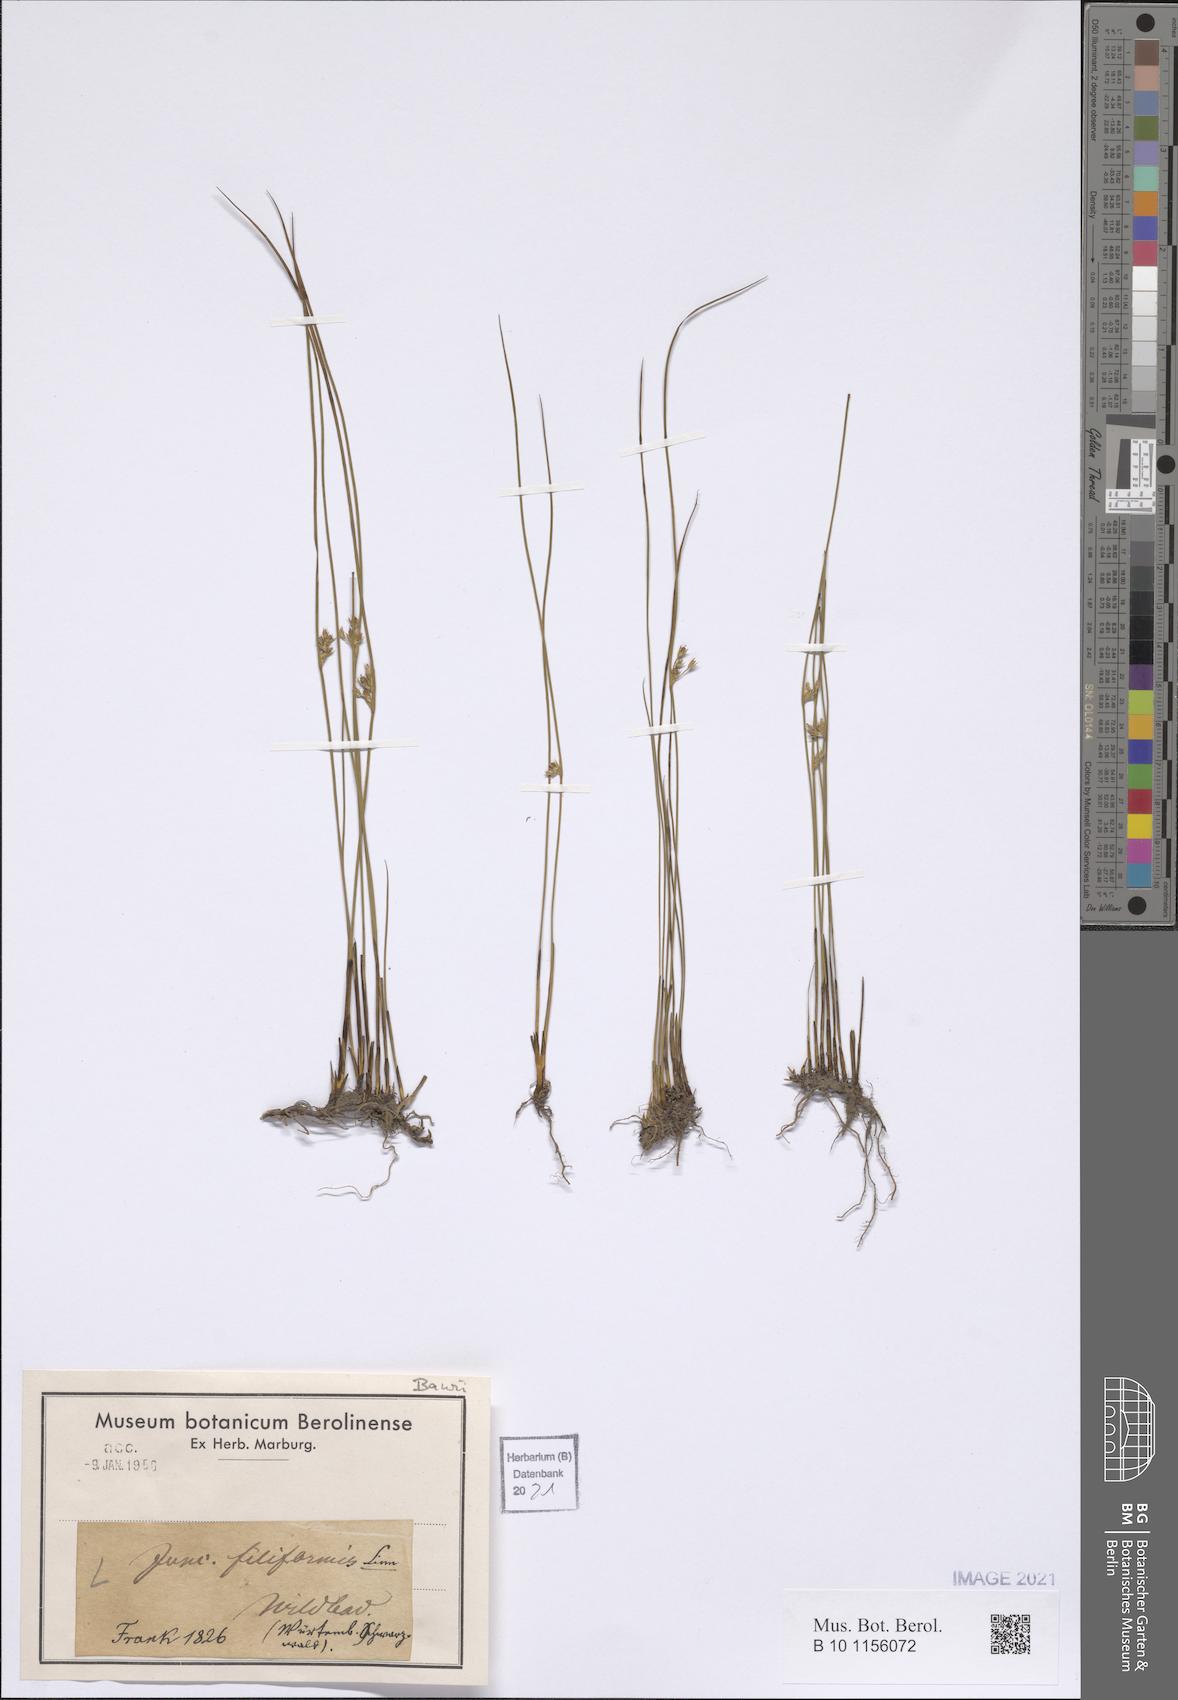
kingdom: Plantae
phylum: Tracheophyta
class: Liliopsida
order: Poales
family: Juncaceae
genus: Juncus
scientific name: Juncus filiformis
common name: Thread rush
